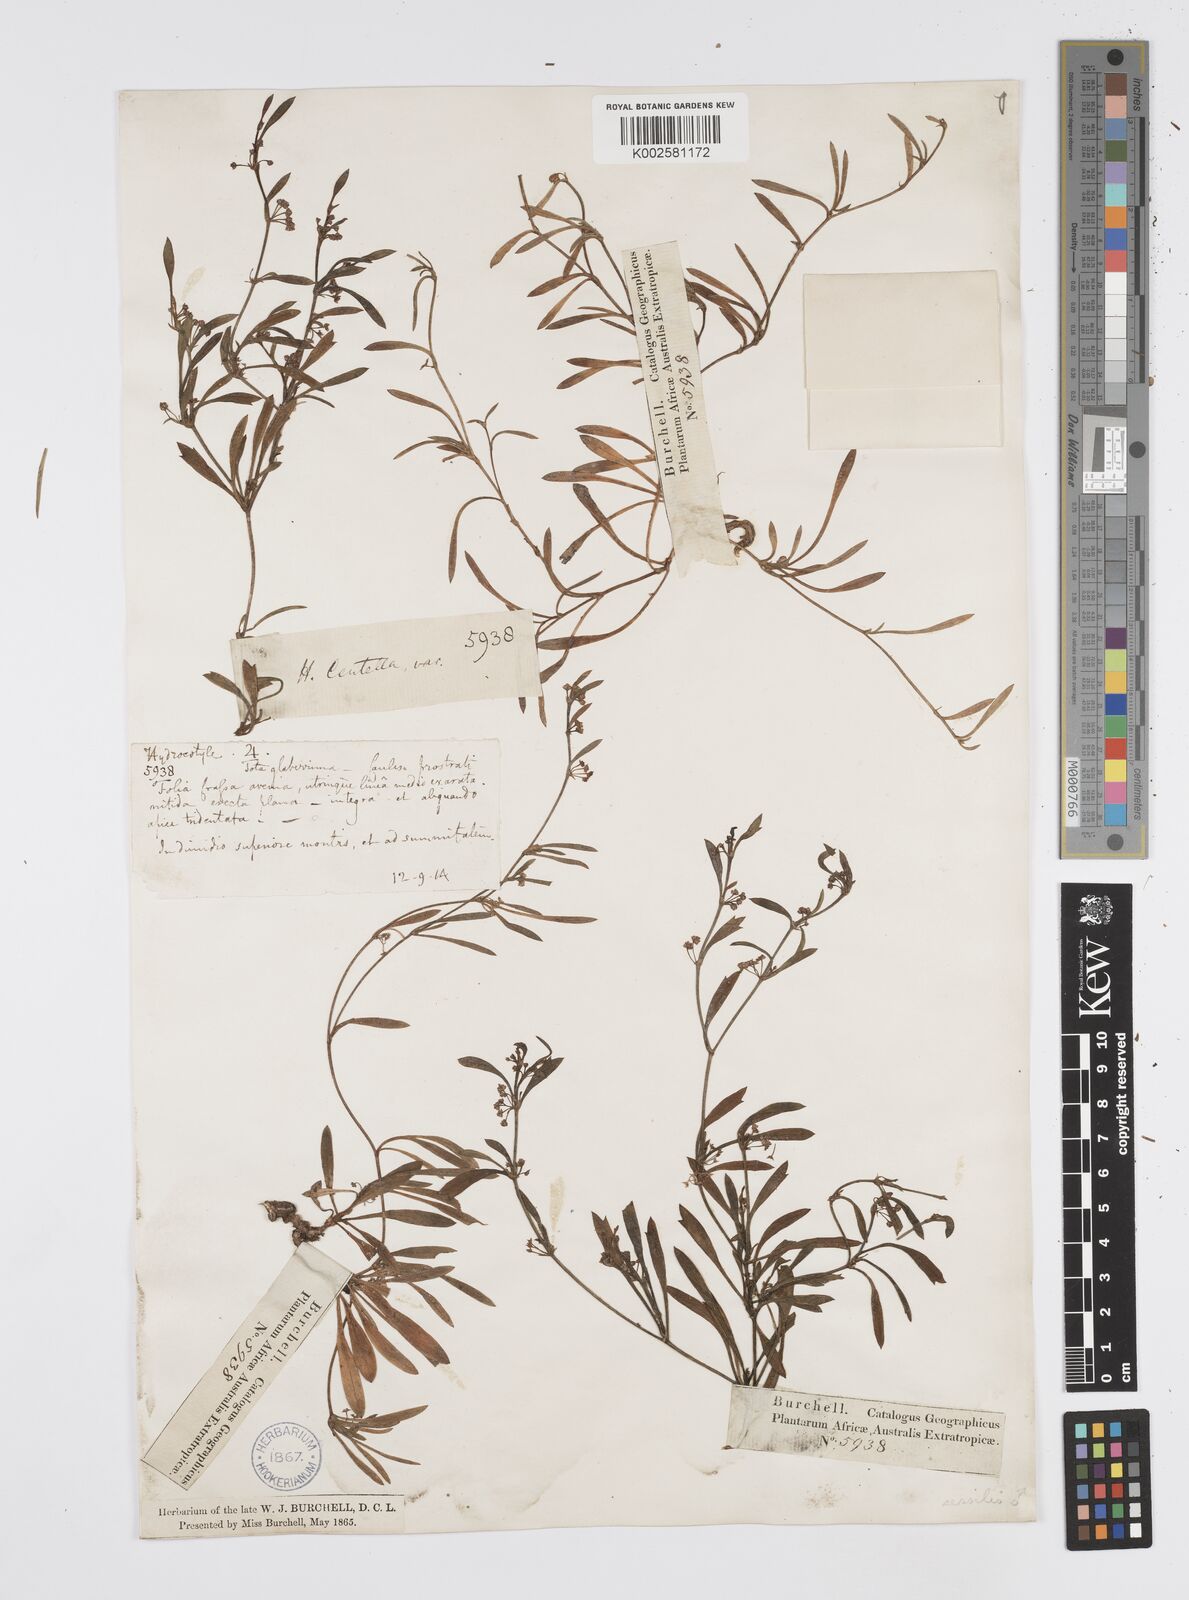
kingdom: Plantae
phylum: Tracheophyta
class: Magnoliopsida
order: Apiales
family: Apiaceae
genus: Centella
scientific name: Centella sessilis
